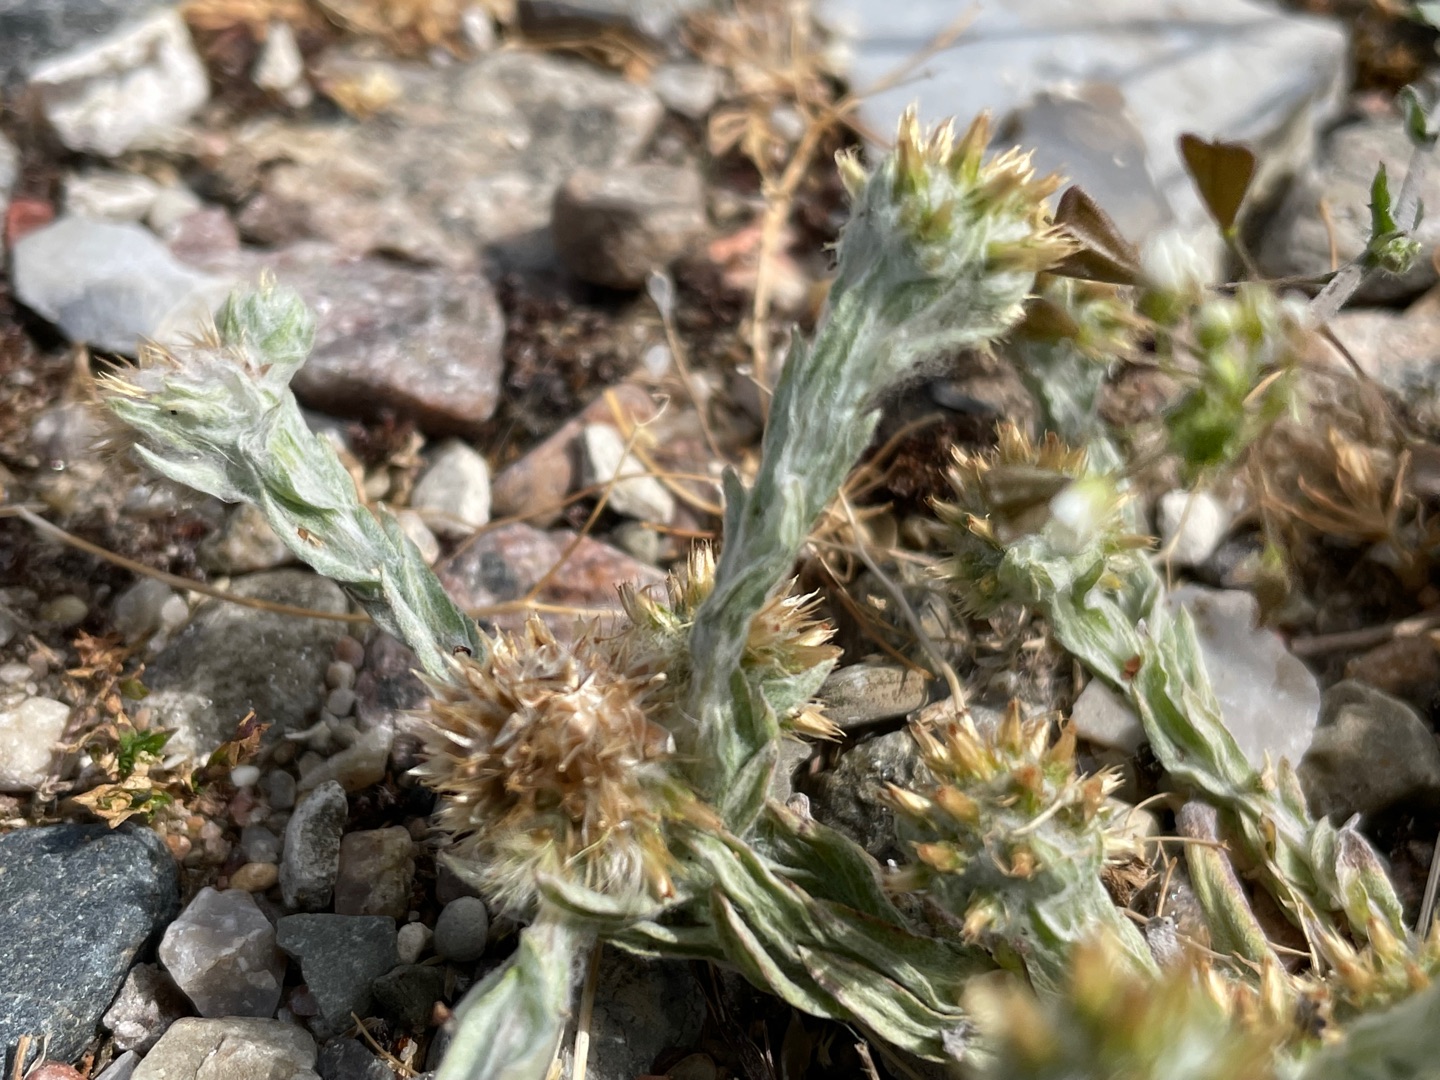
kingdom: Plantae
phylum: Tracheophyta
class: Magnoliopsida
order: Asterales
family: Asteraceae
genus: Filago
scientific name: Filago germanica
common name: Kugle-museurt
